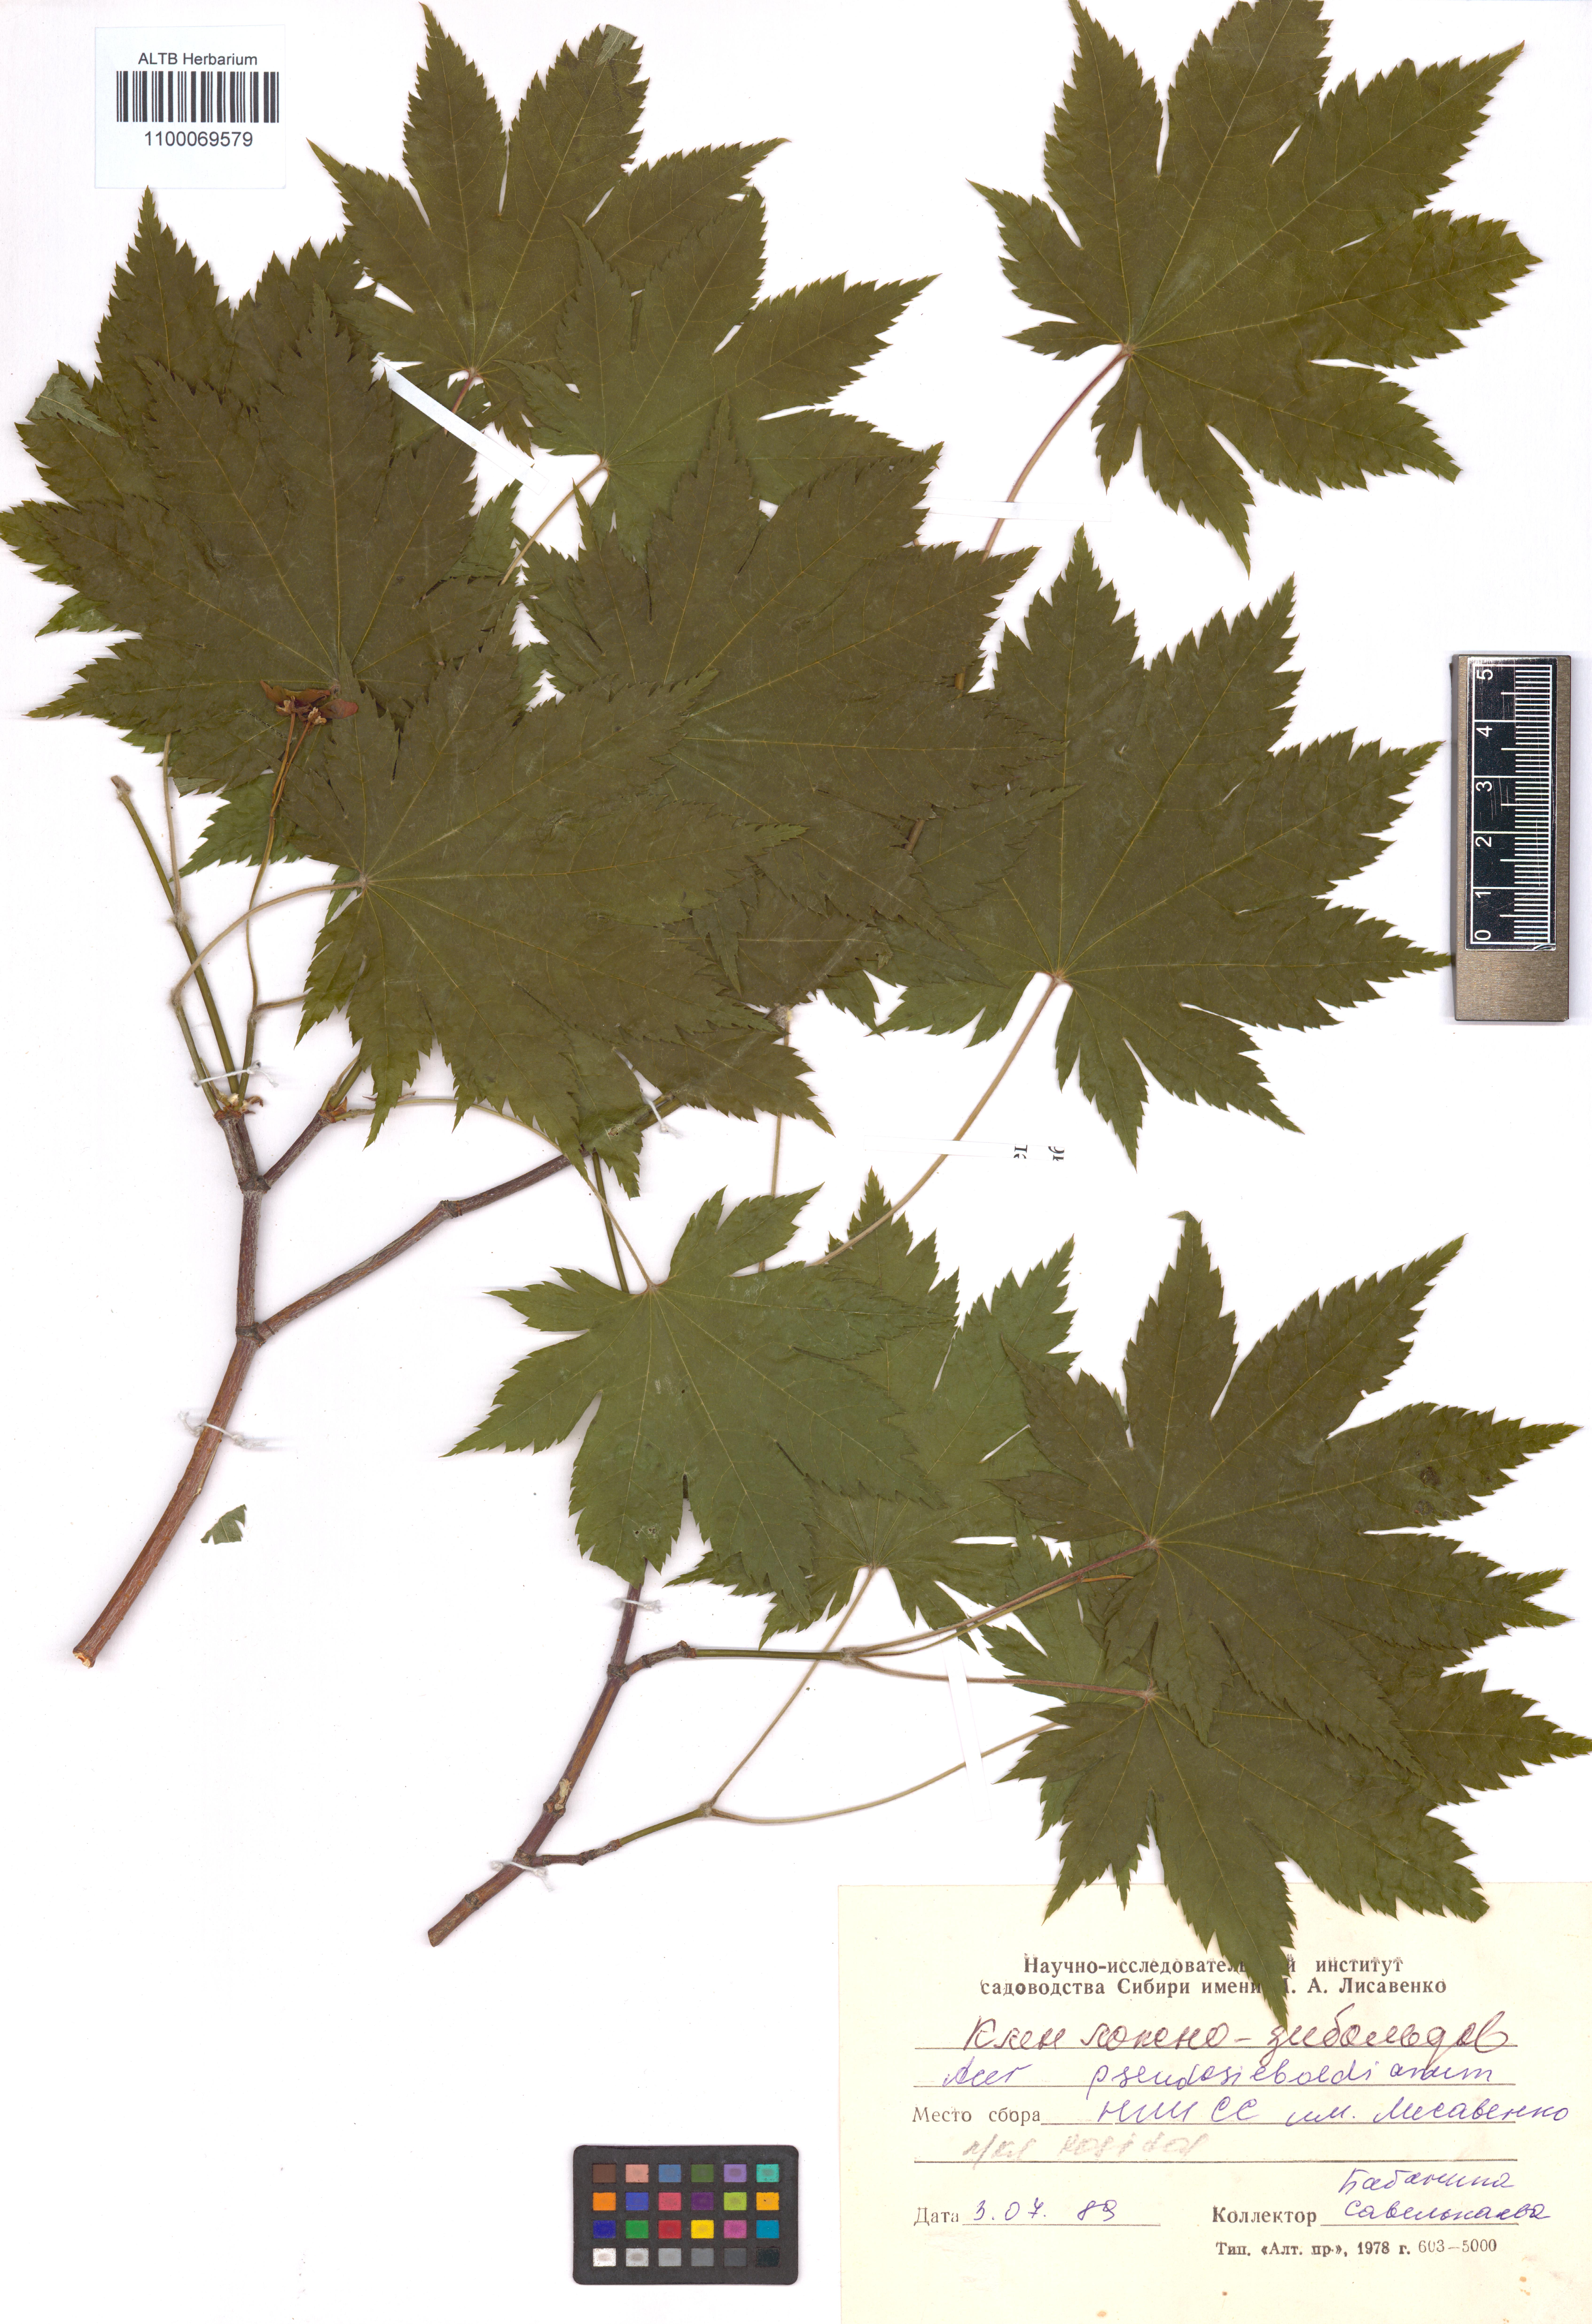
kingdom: Plantae
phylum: Tracheophyta
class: Magnoliopsida
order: Sapindales
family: Sapindaceae
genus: Acer
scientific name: Acer pseudosieboldianum
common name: Korean maple
